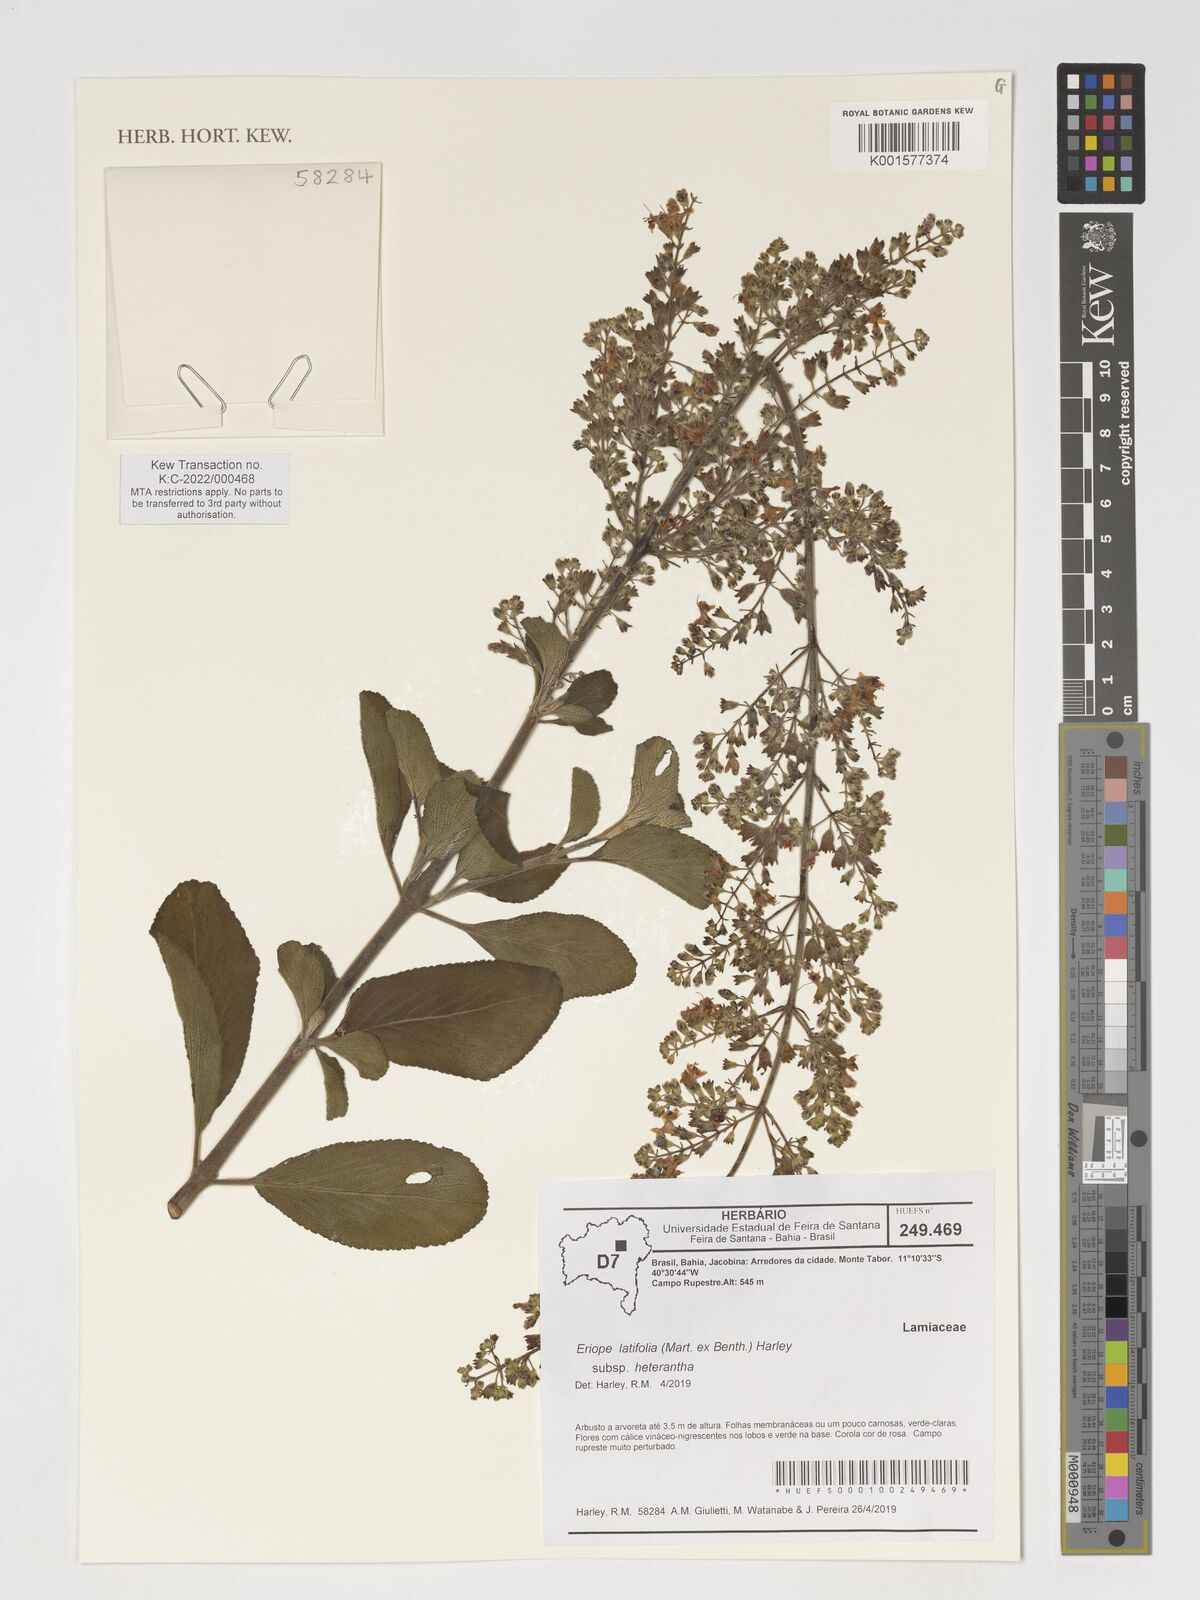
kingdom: Plantae
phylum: Tracheophyta
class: Magnoliopsida
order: Lamiales
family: Lamiaceae
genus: Eriope
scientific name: Eriope latifolia
